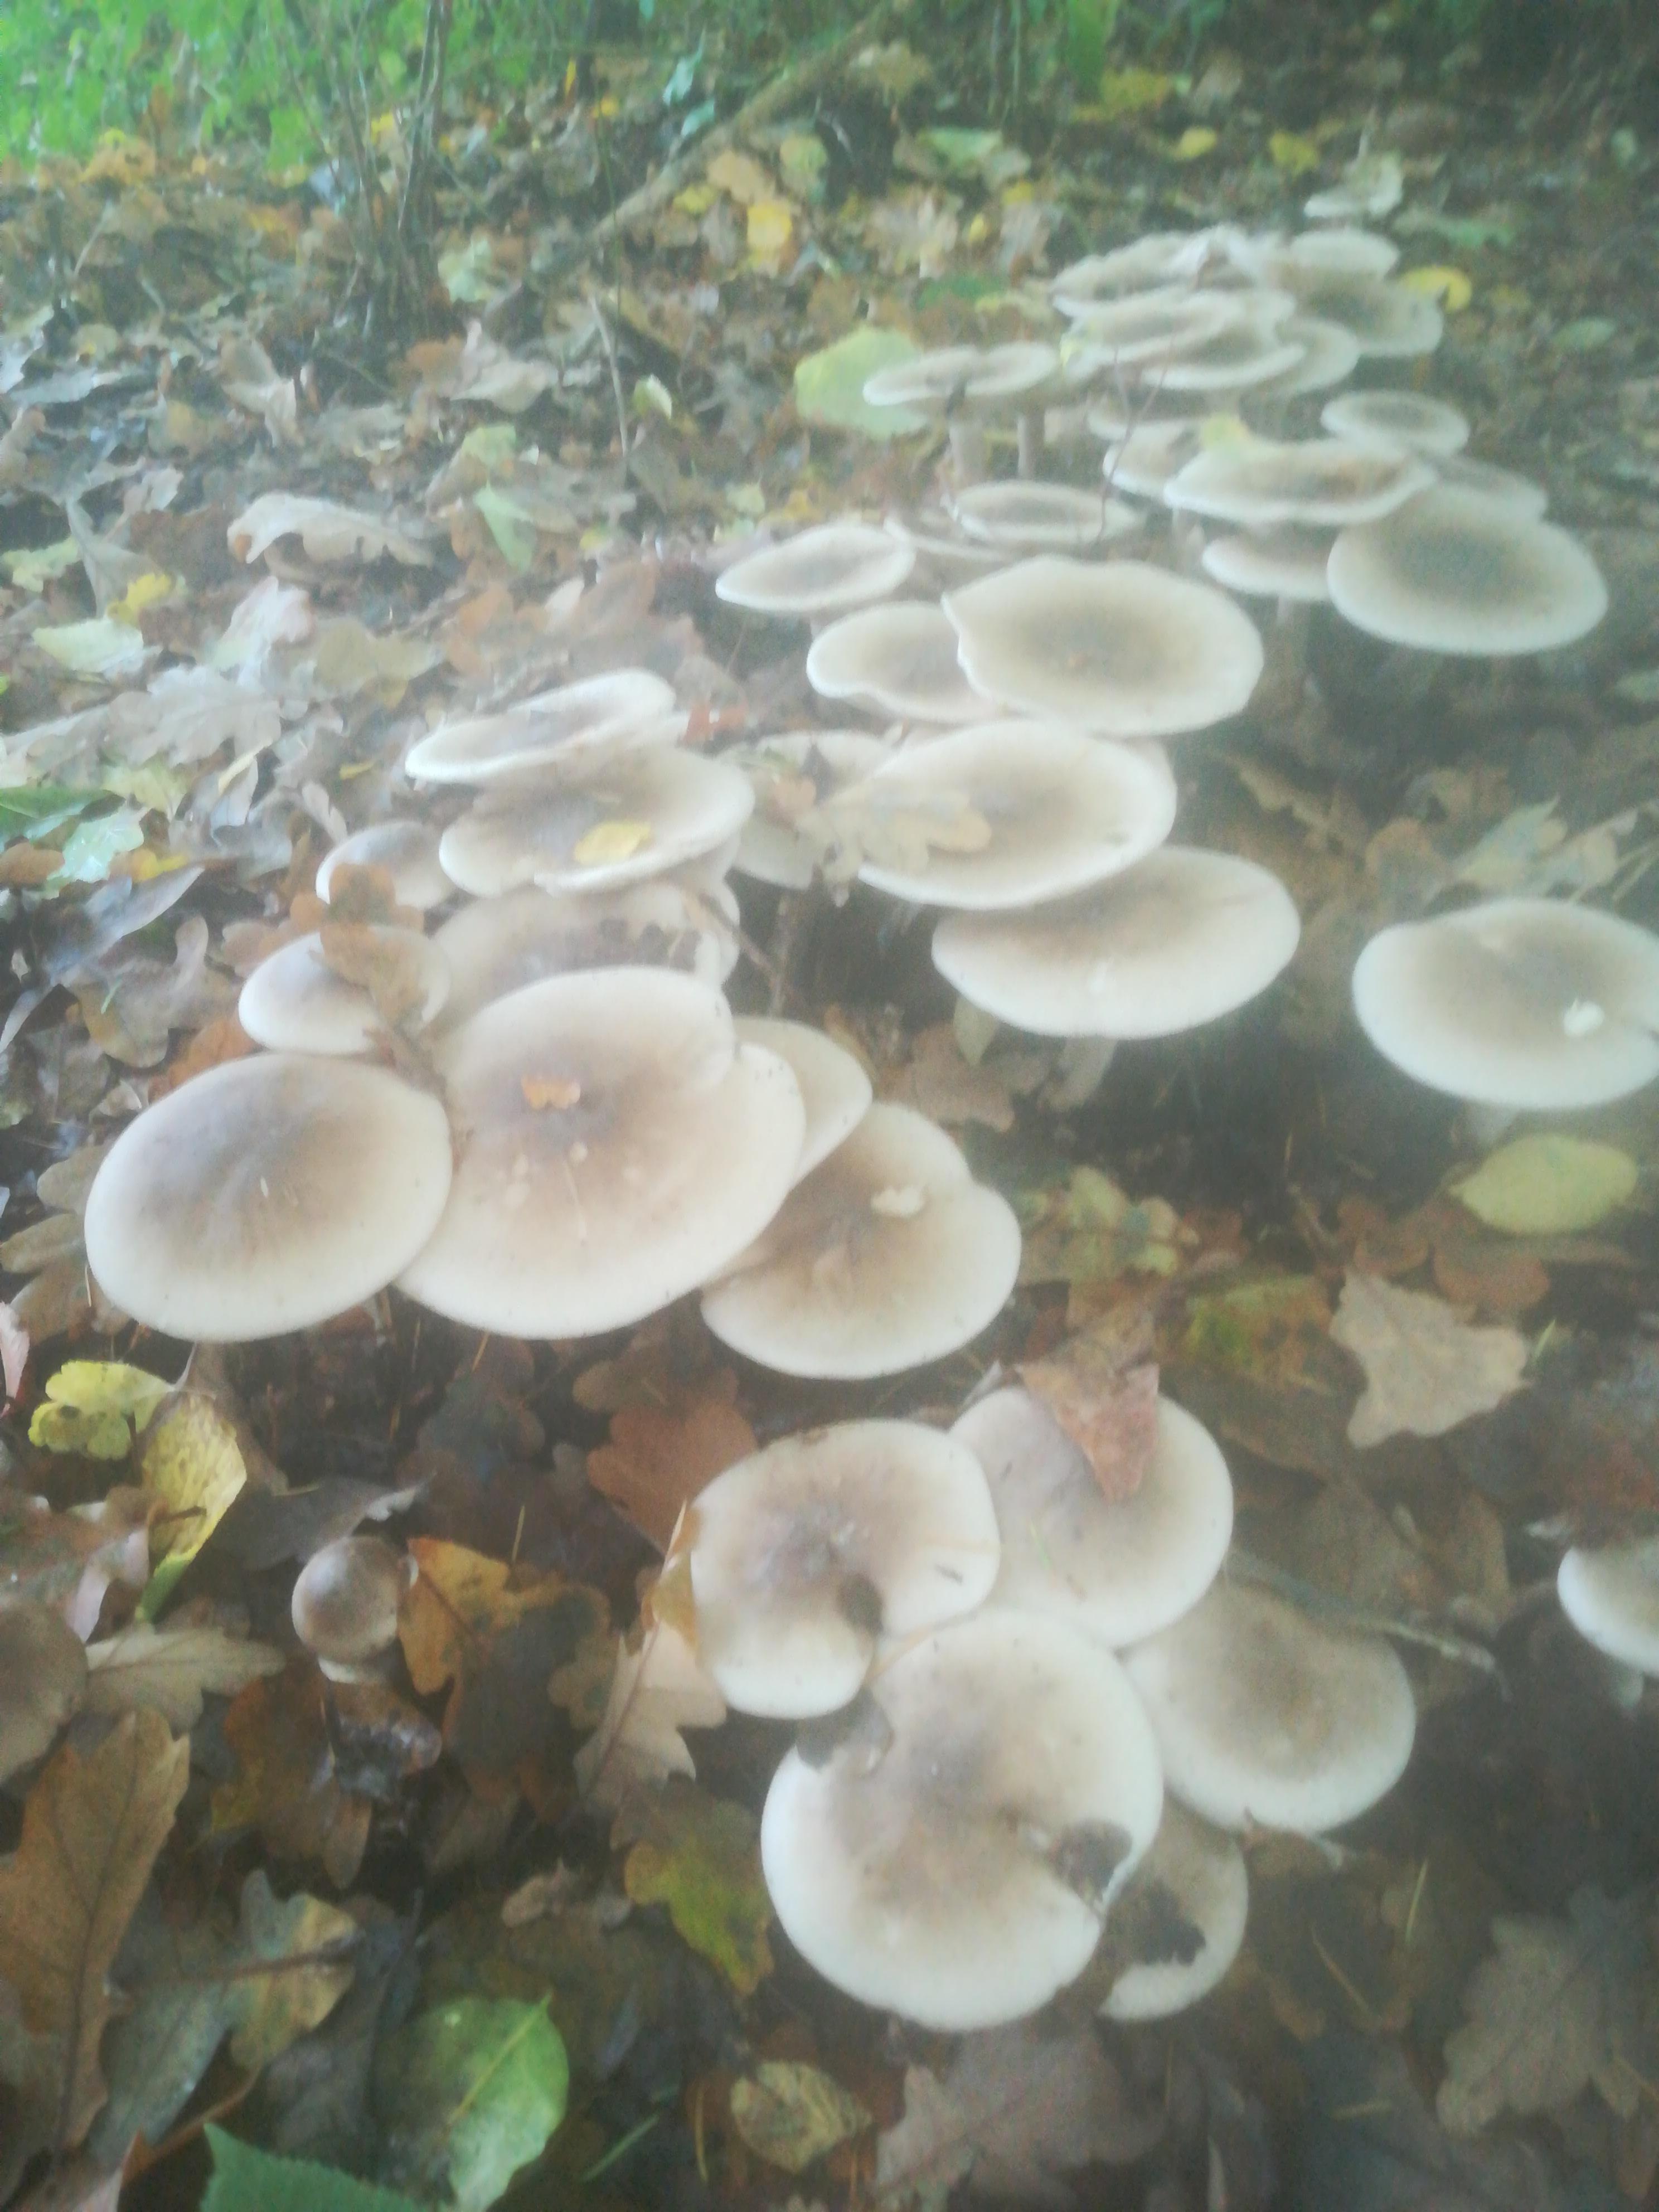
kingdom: Fungi
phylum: Basidiomycota
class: Agaricomycetes
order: Agaricales
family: Tricholomataceae
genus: Clitocybe
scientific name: Clitocybe nebularis
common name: tåge-tragthat
